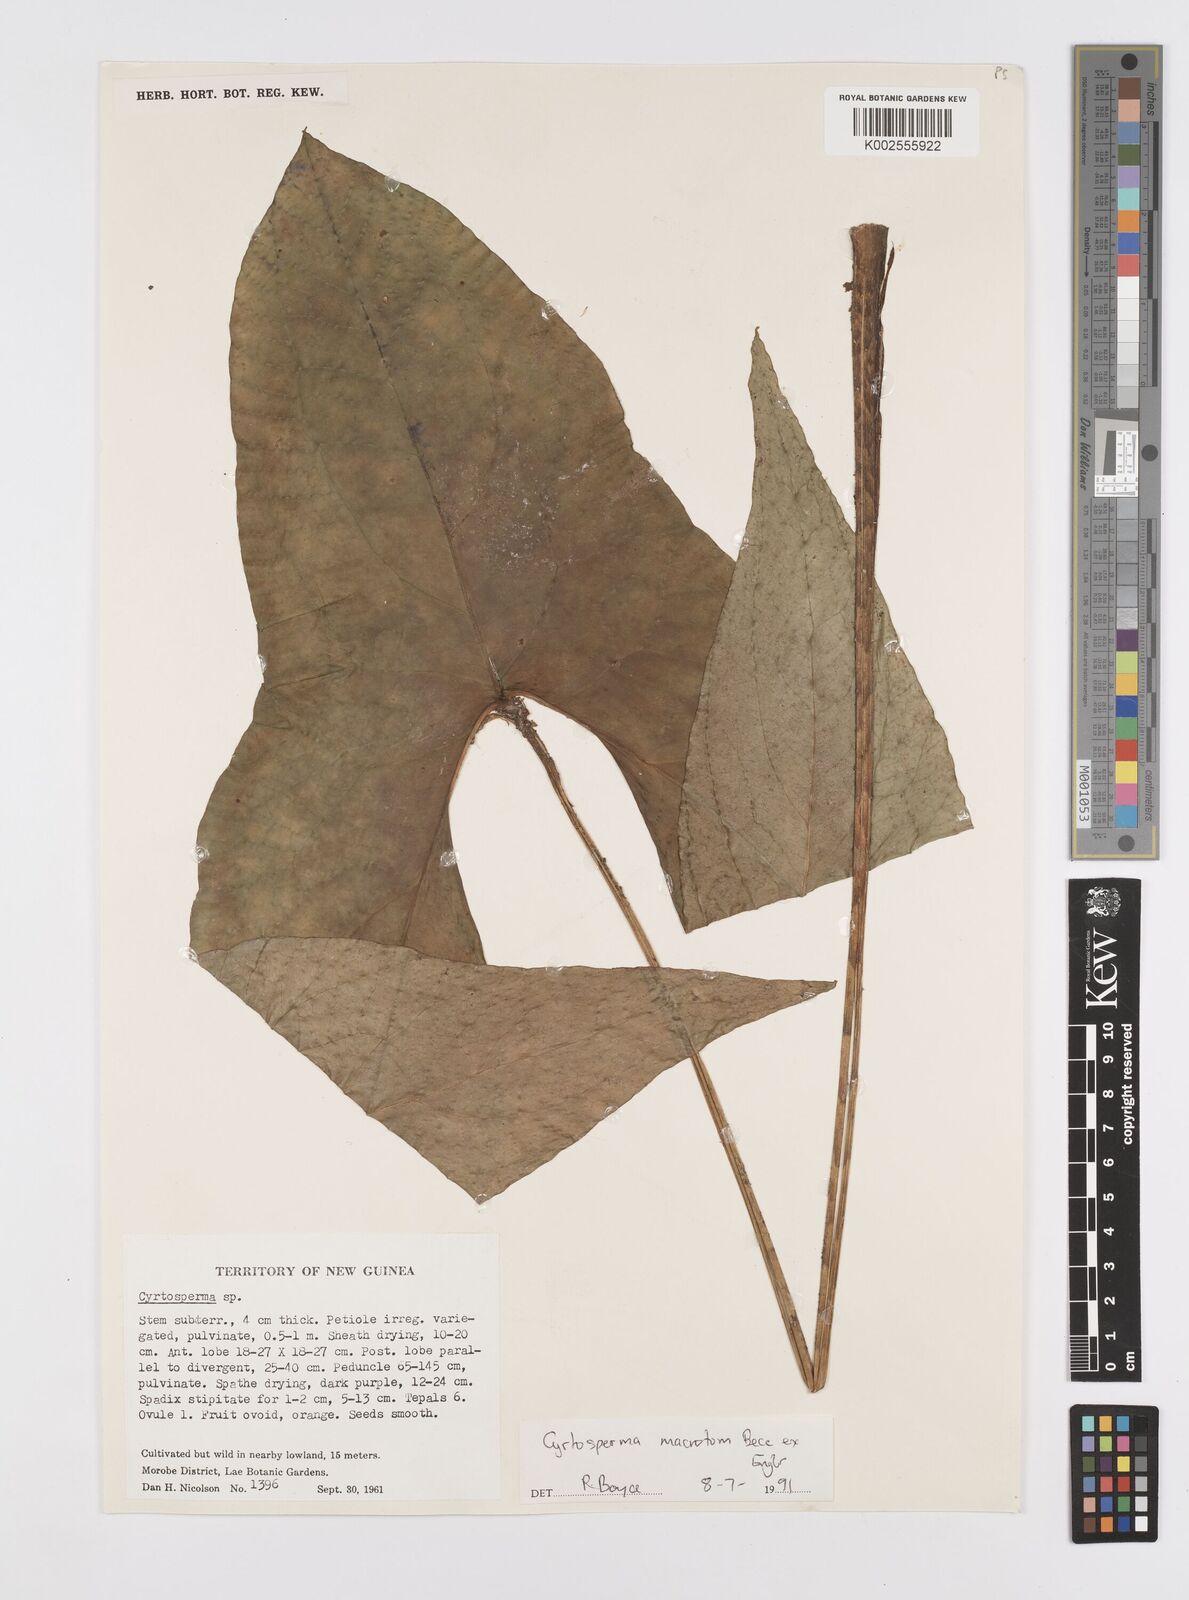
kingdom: Plantae
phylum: Tracheophyta
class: Liliopsida
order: Alismatales
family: Araceae
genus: Cyrtosperma
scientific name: Cyrtosperma macrotum
